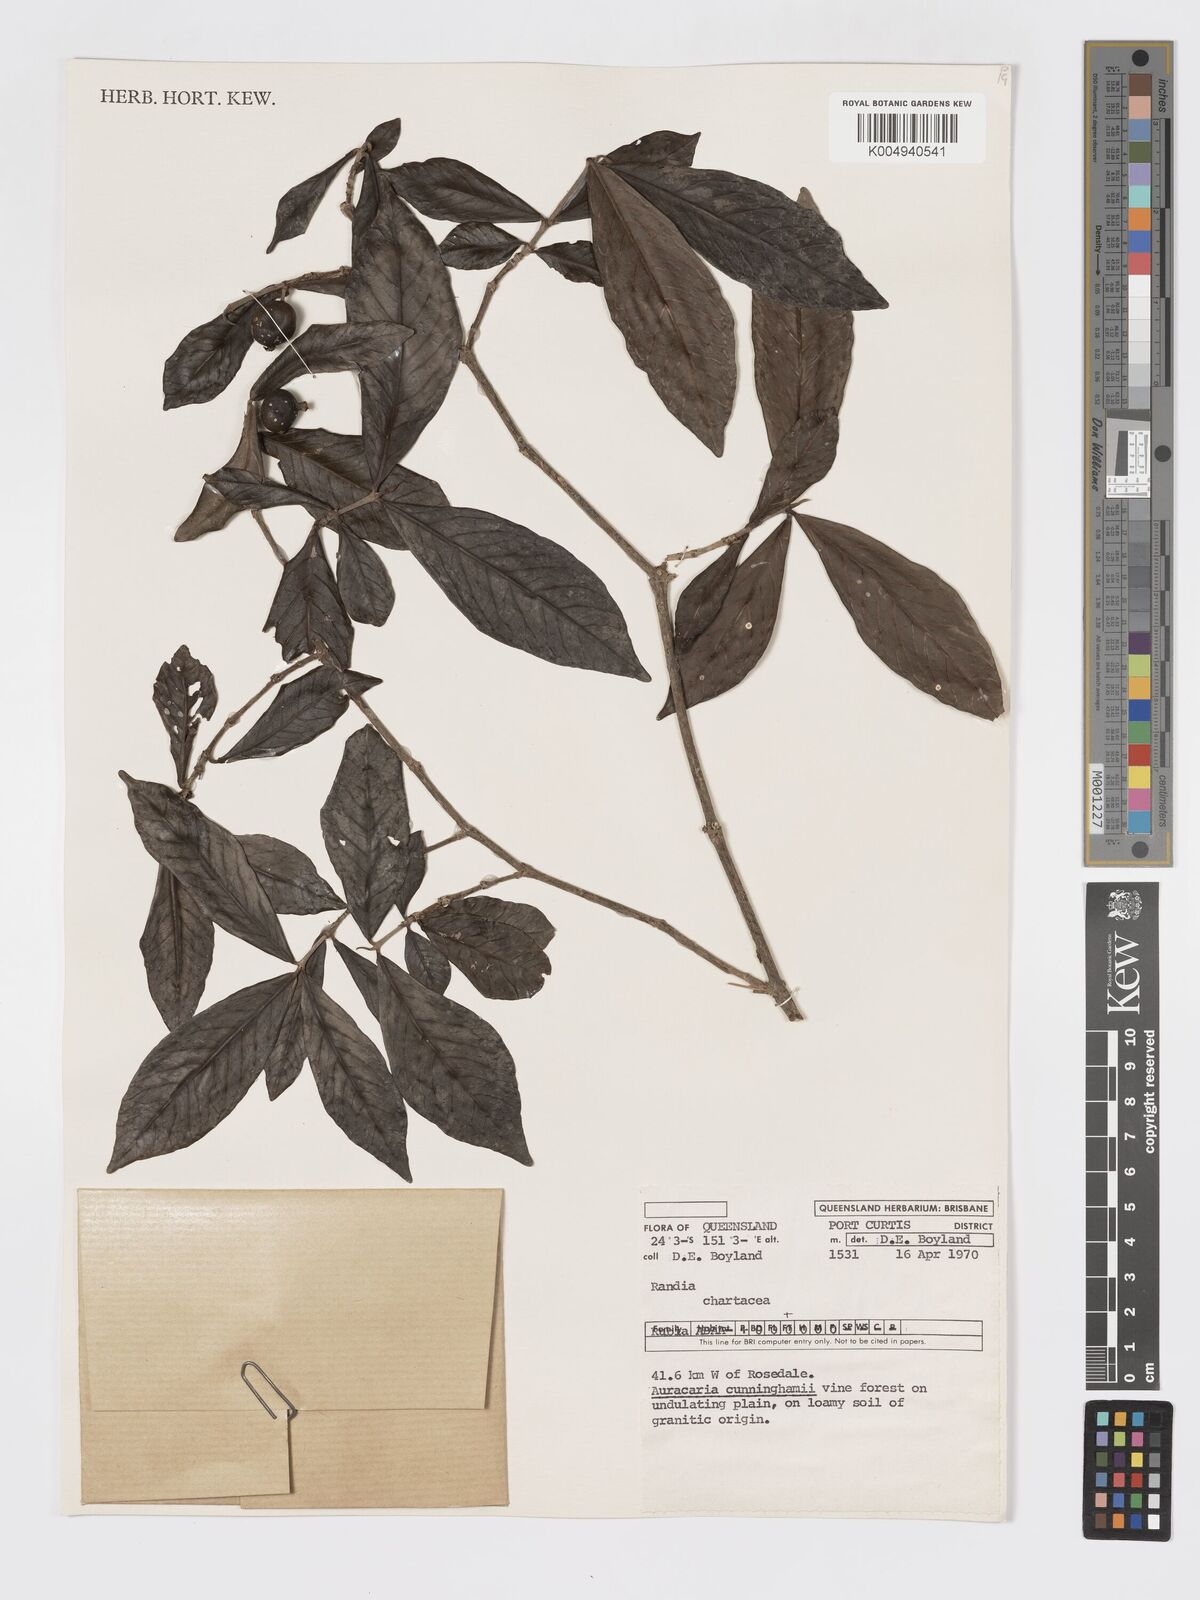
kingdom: Plantae
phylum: Tracheophyta
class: Magnoliopsida
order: Gentianales
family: Rubiaceae
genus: Atractocarpus
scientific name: Atractocarpus chartaceus
